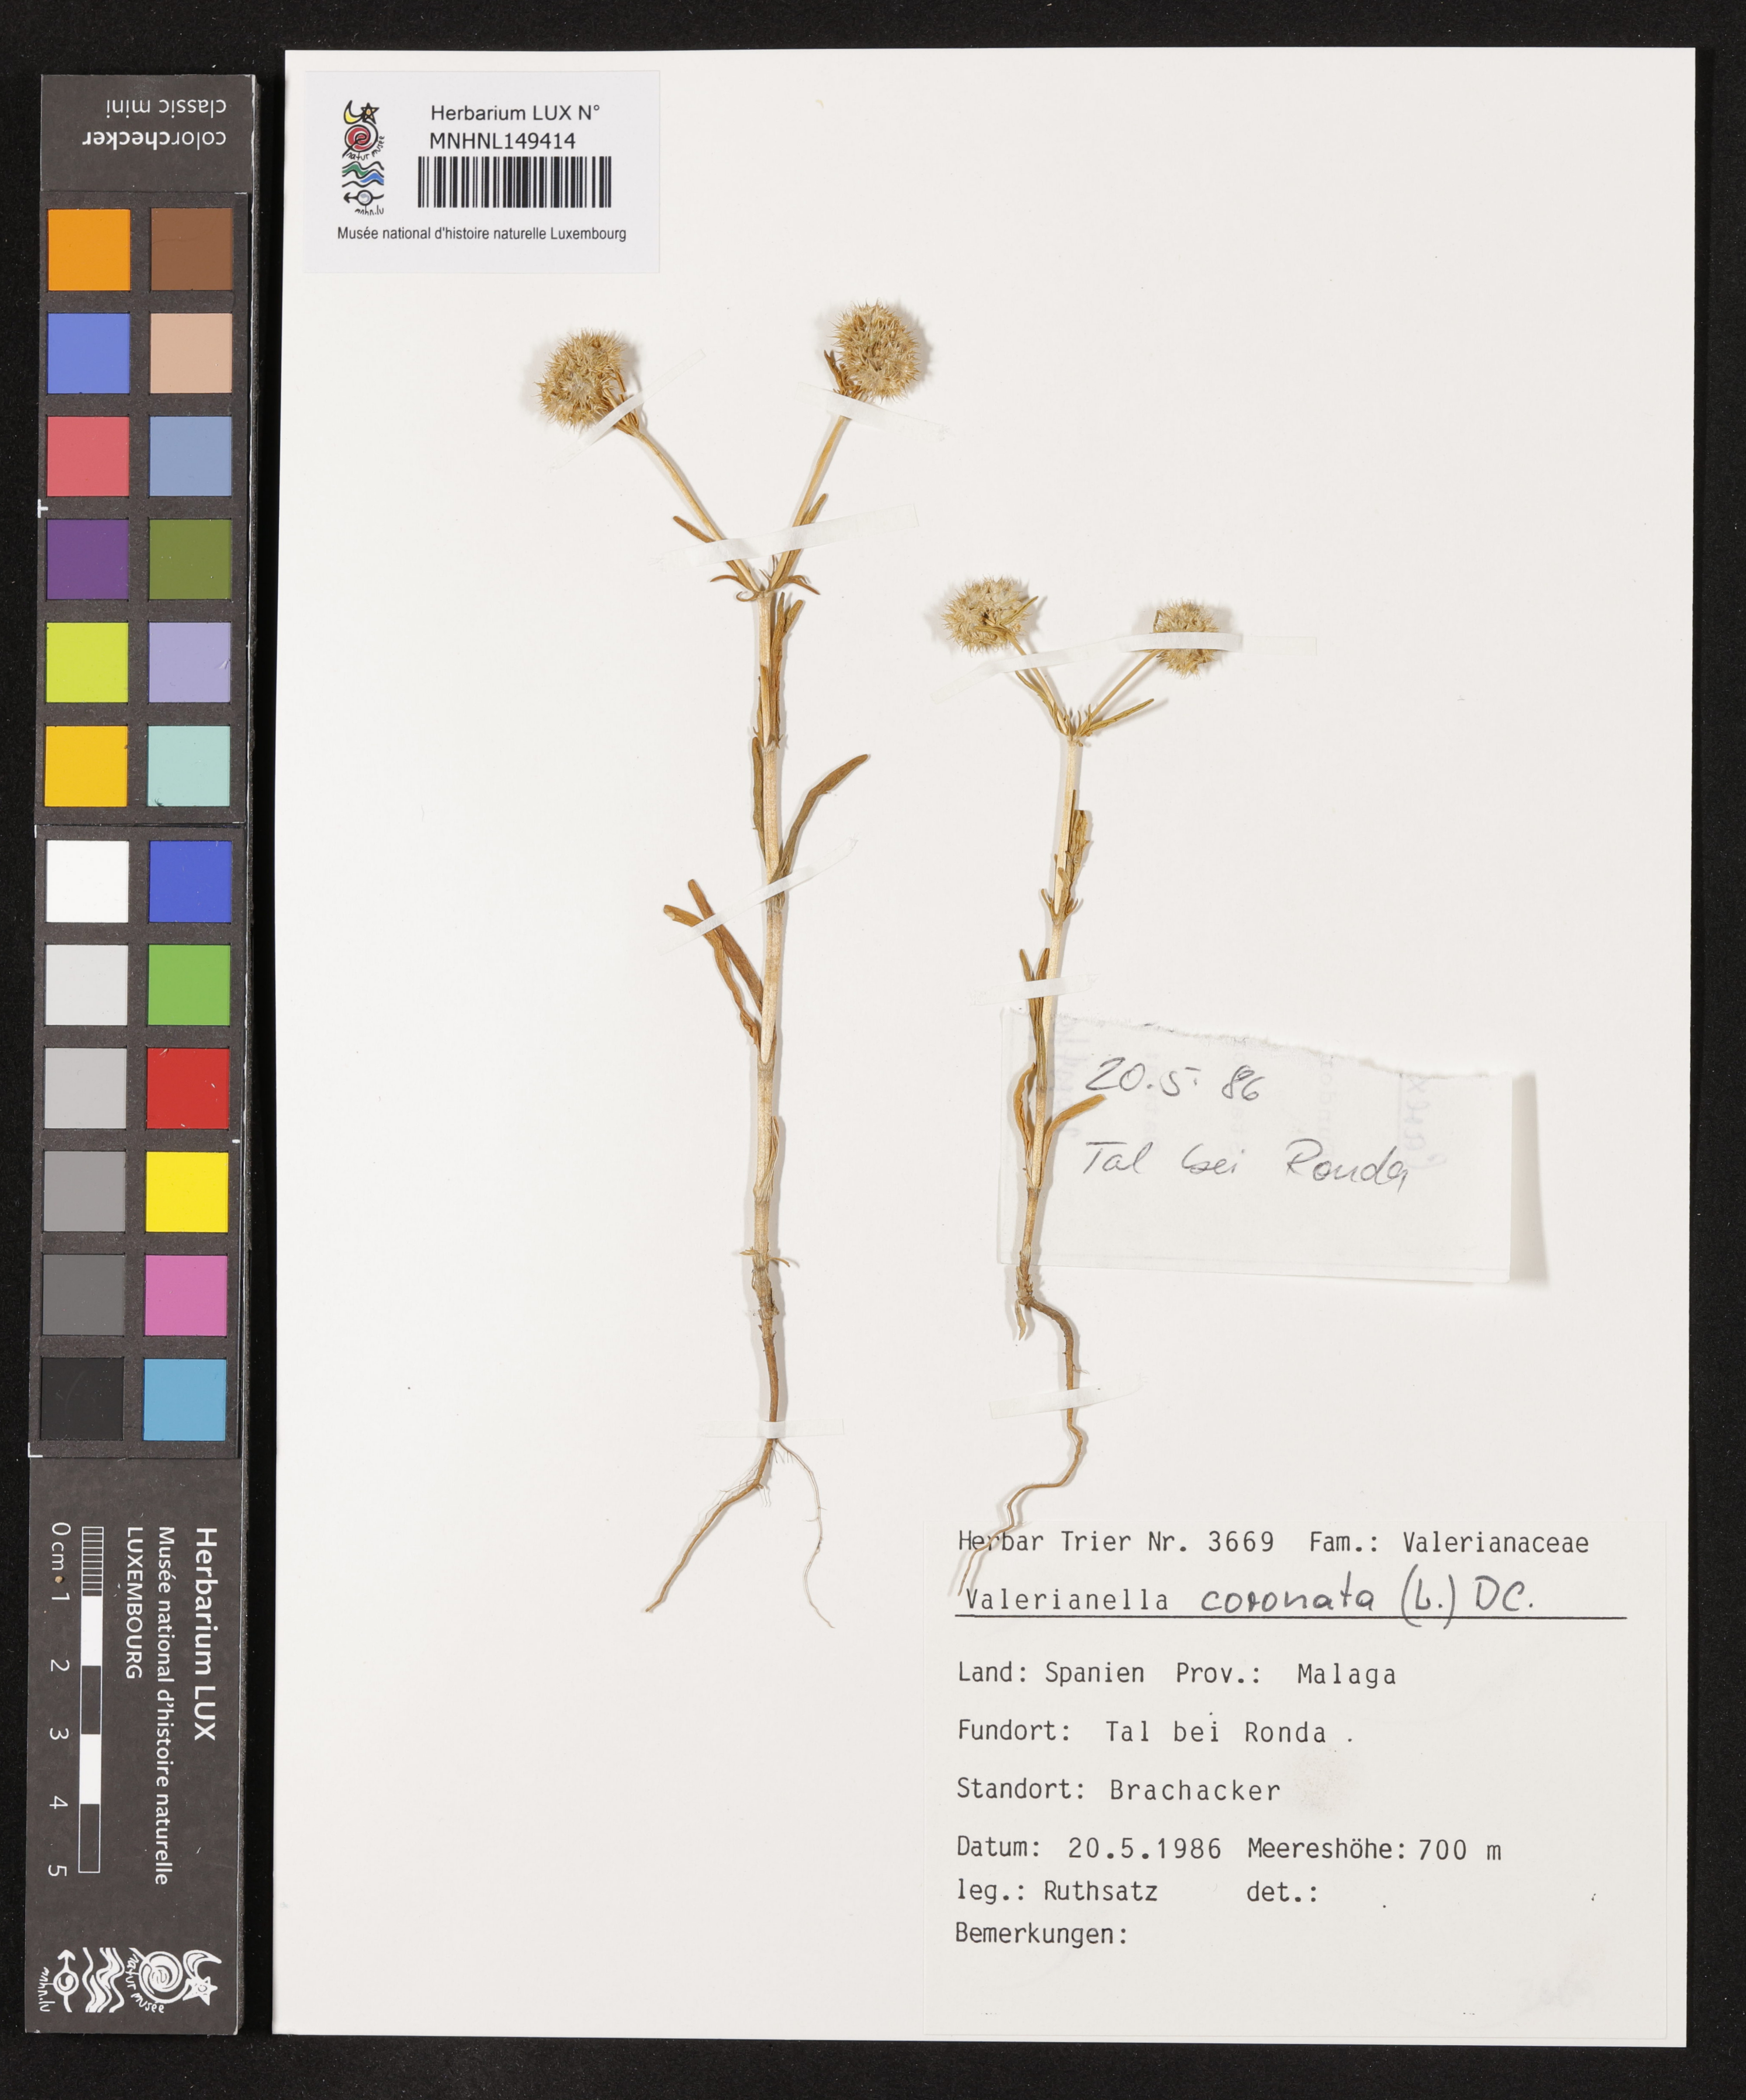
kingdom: Plantae
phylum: Tracheophyta
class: Magnoliopsida
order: Dipsacales
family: Caprifoliaceae
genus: Valerianella
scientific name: Valerianella coronata
